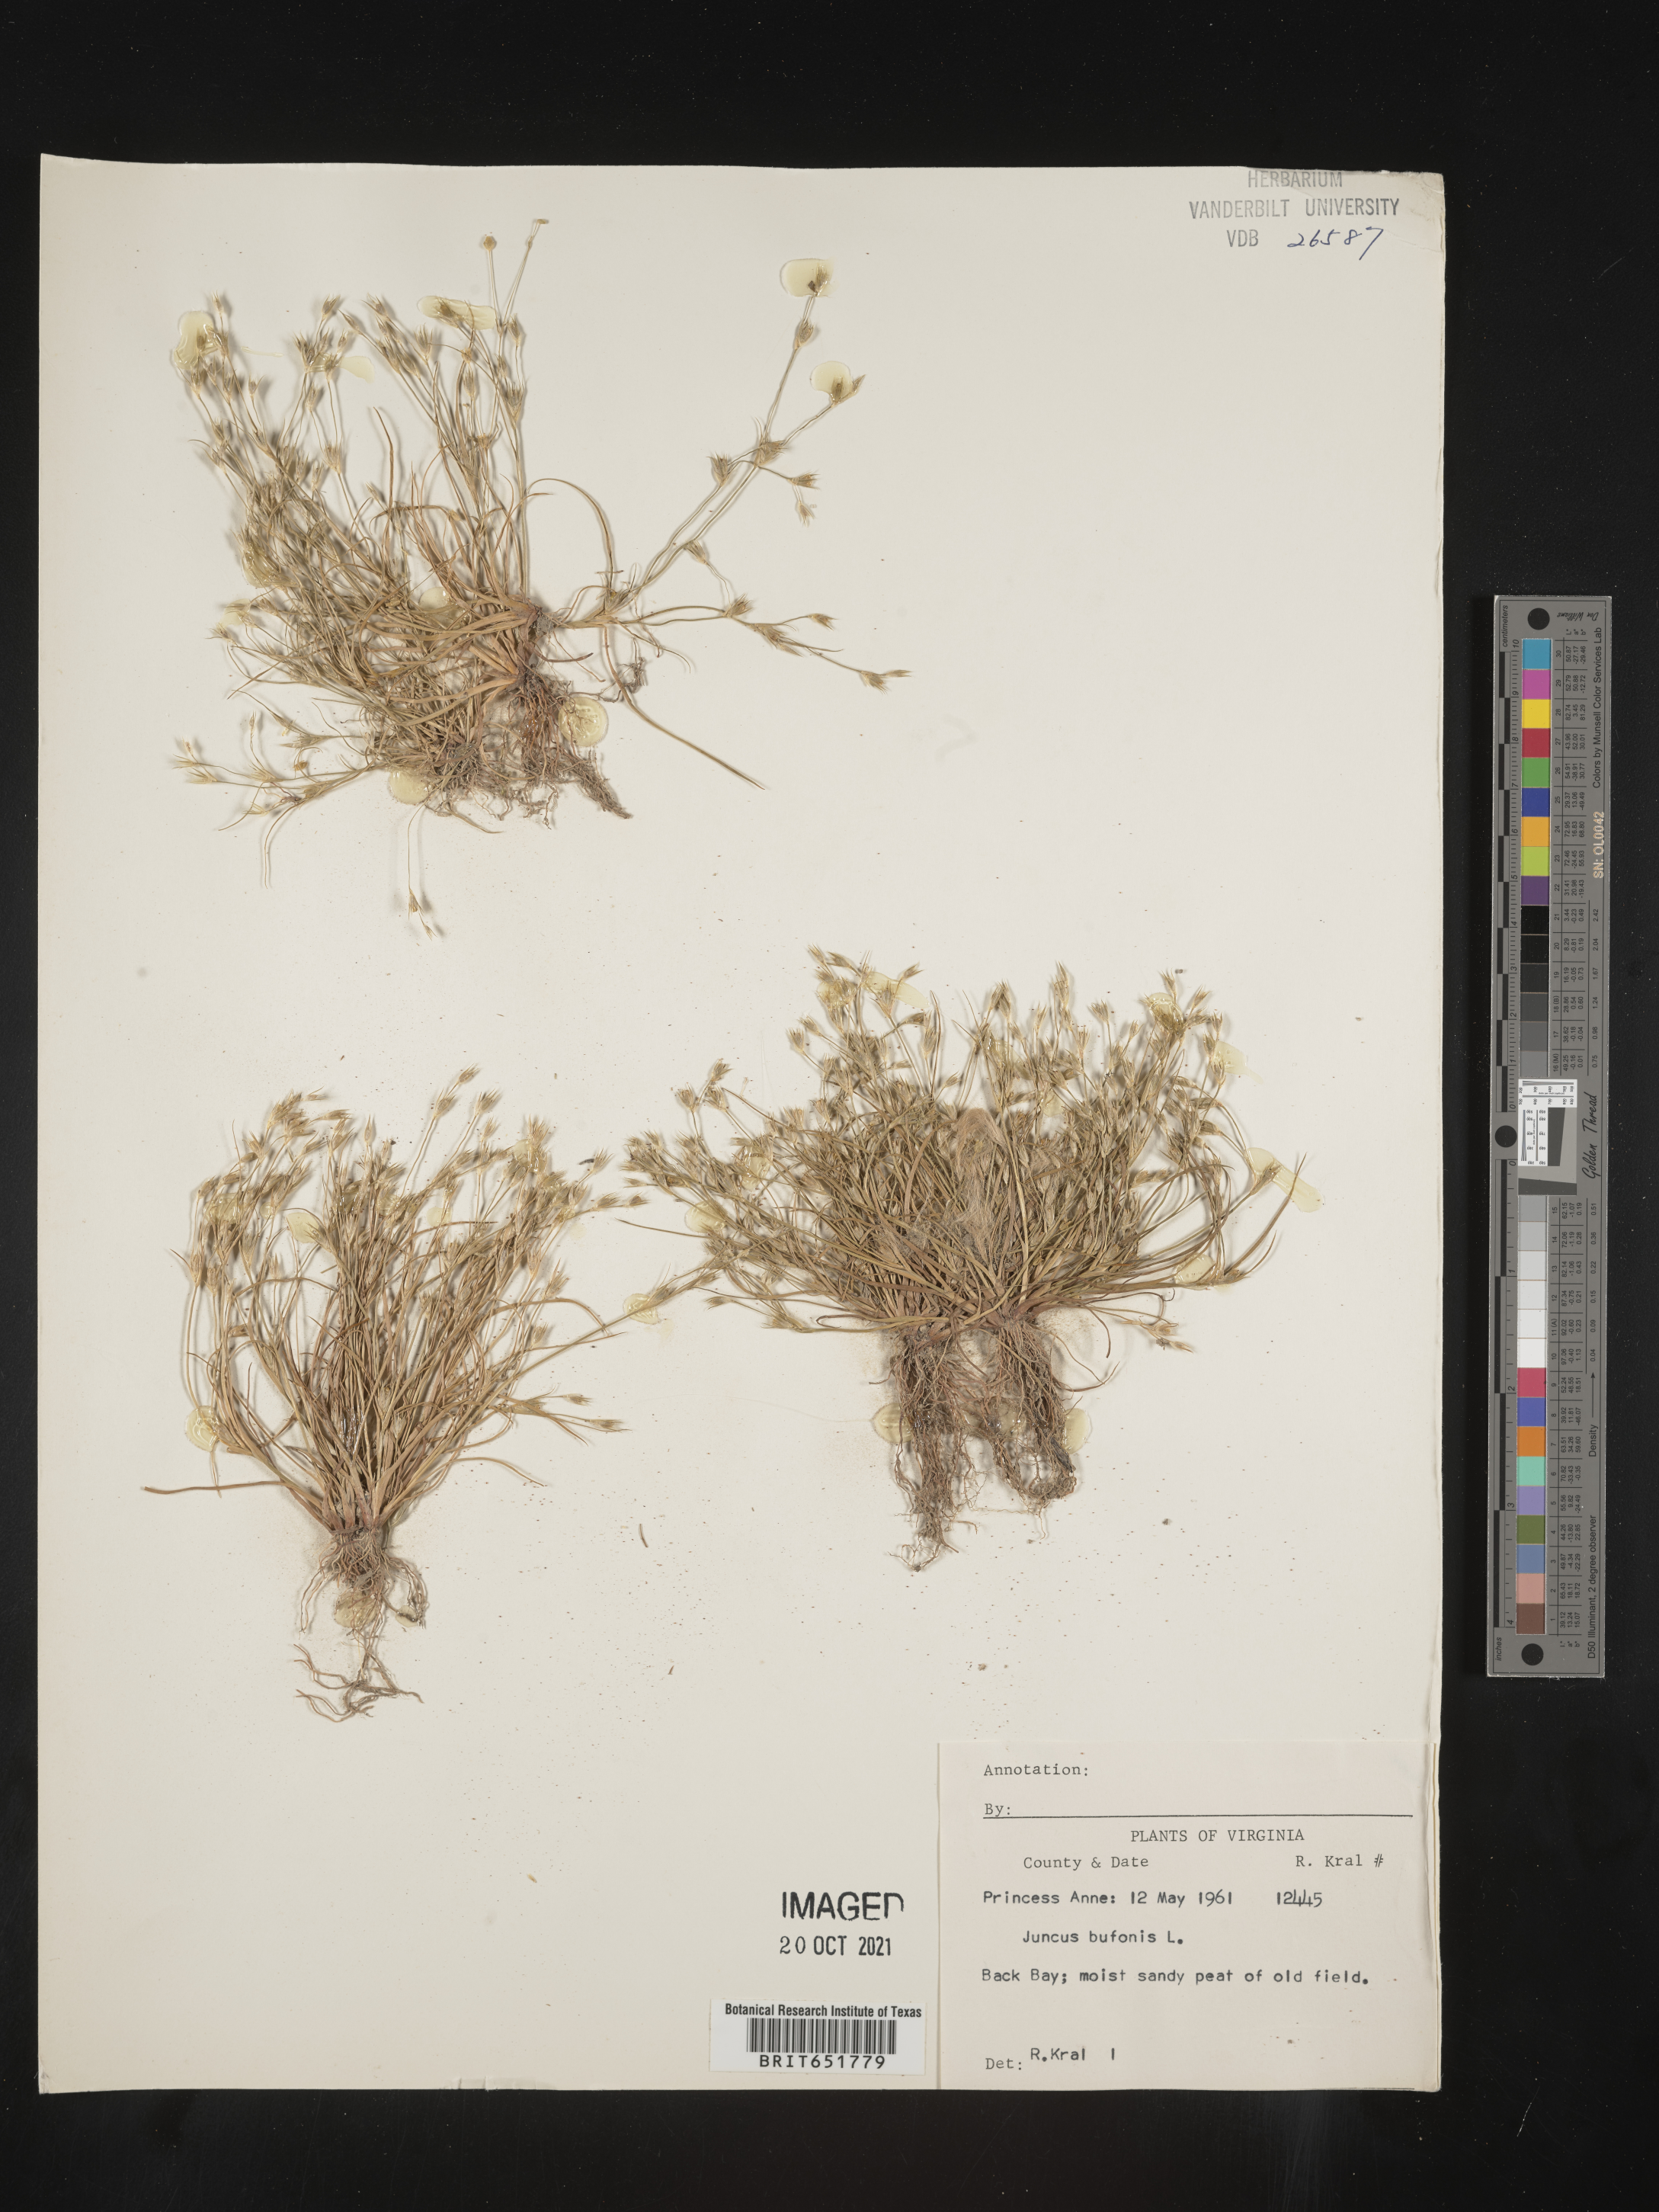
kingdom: Plantae
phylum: Tracheophyta
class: Liliopsida
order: Poales
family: Juncaceae
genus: Juncus
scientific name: Juncus bufonius
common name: Toad rush
